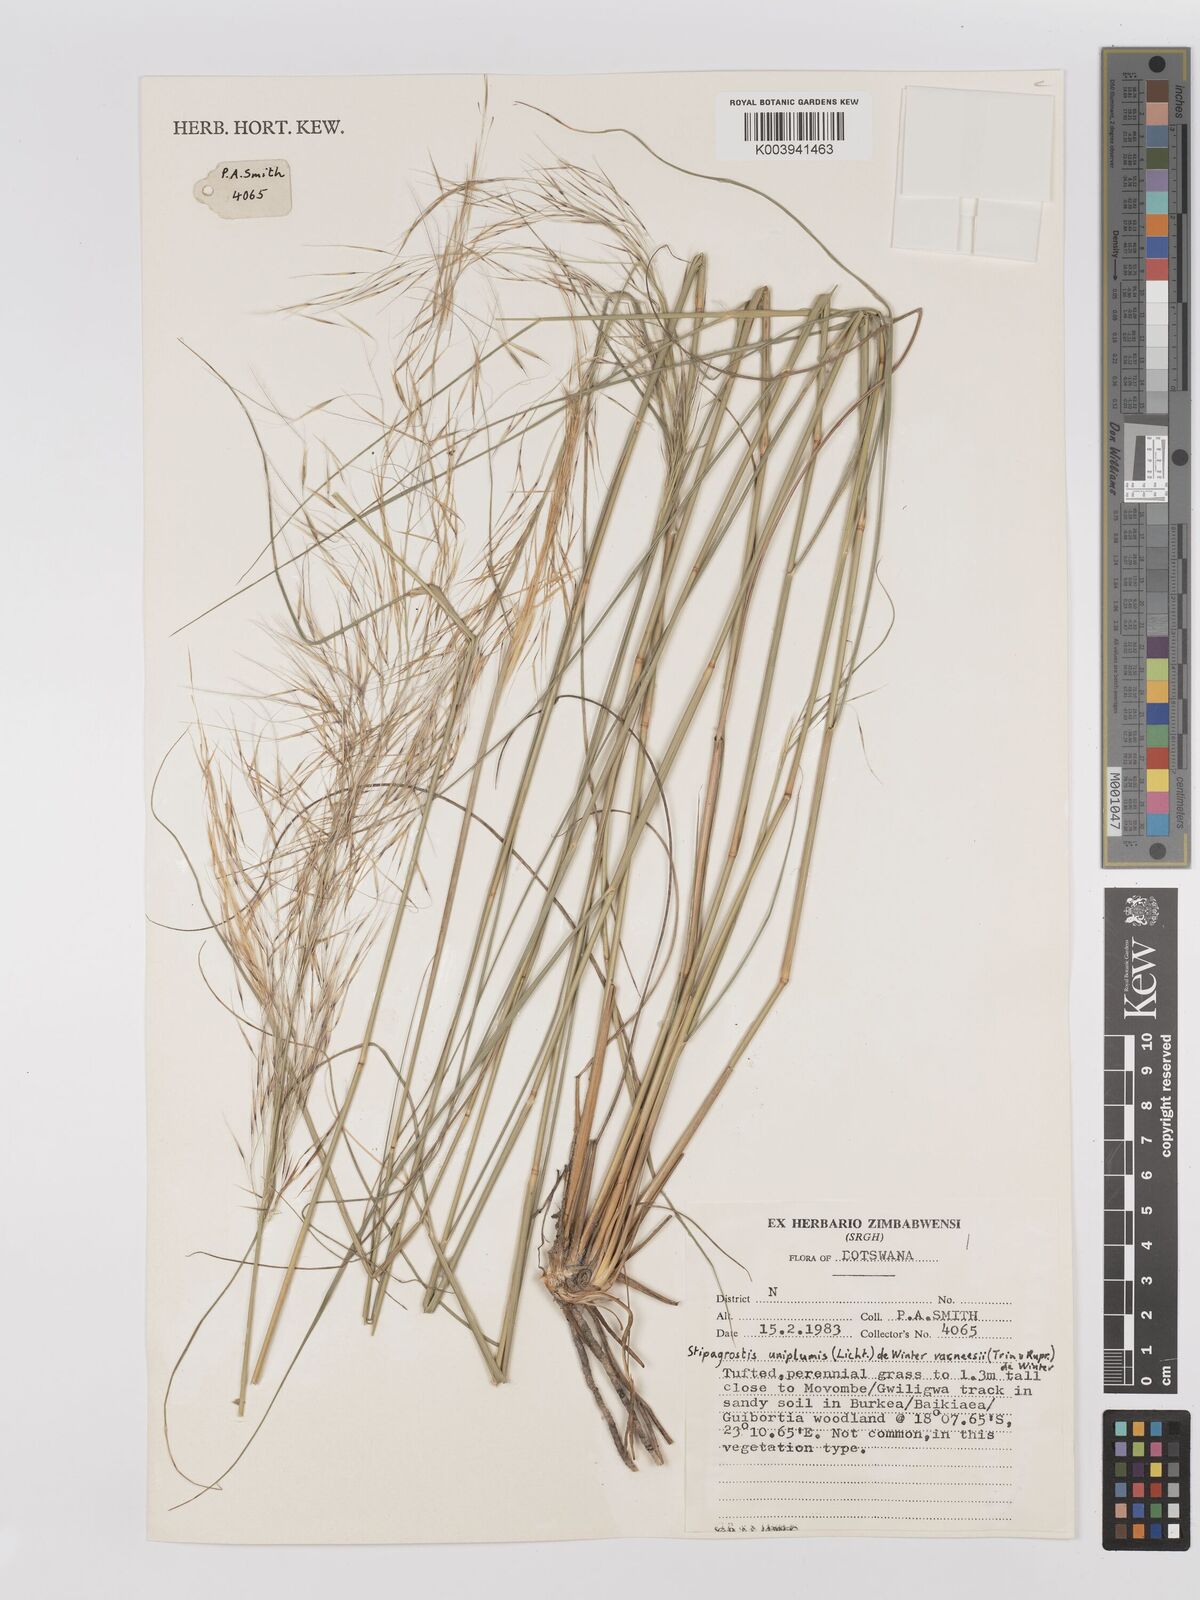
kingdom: Plantae
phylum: Tracheophyta
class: Liliopsida
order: Poales
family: Poaceae
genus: Stipagrostis
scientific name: Stipagrostis uniplumis
